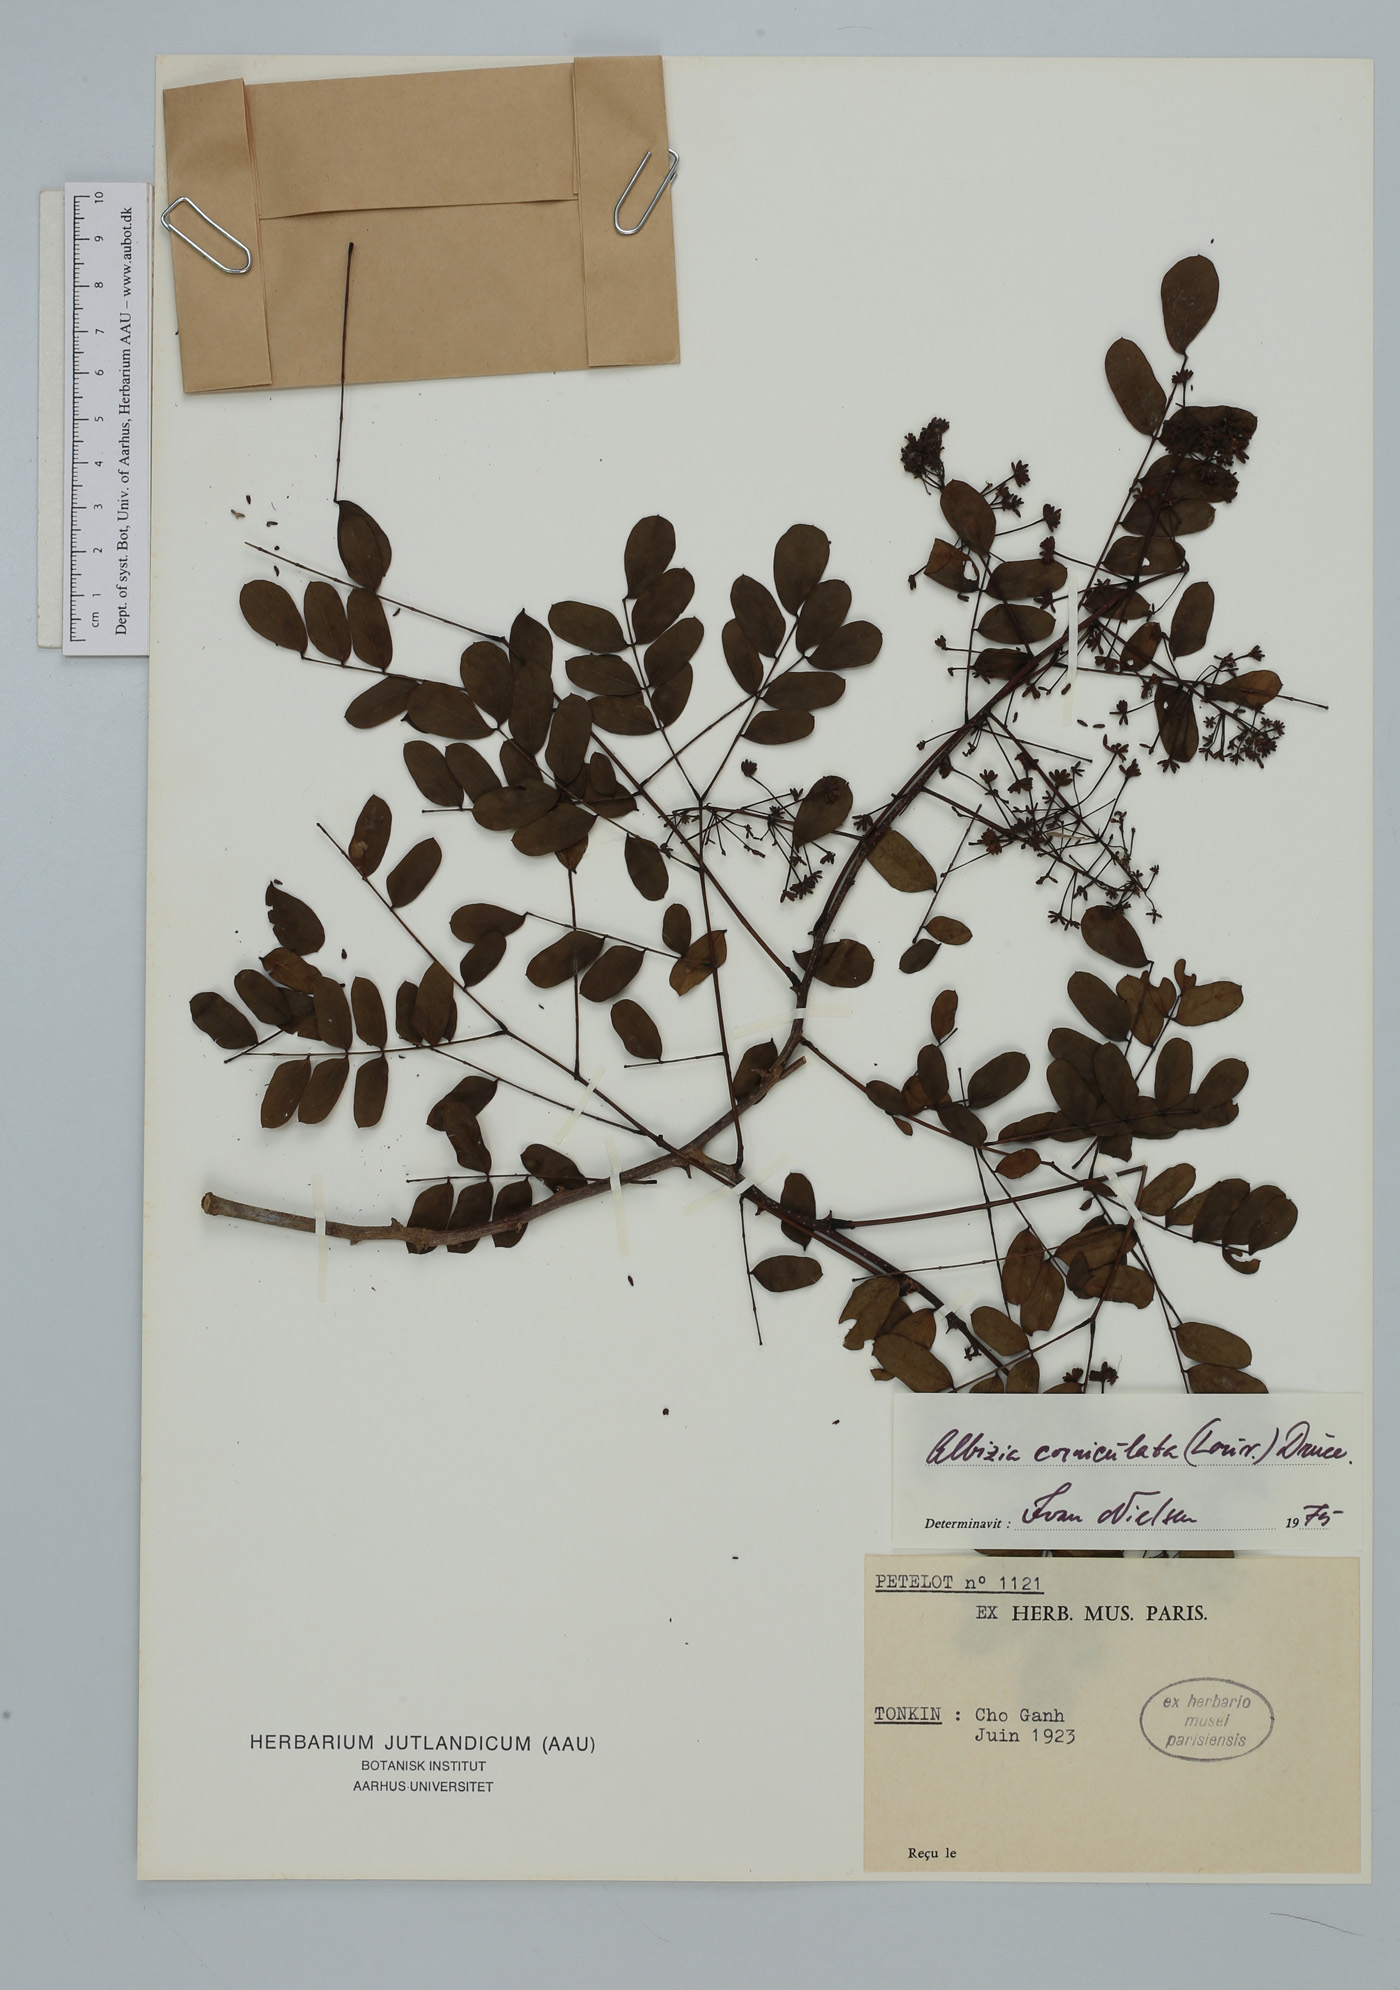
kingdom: Plantae
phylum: Tracheophyta
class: Magnoliopsida
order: Fabales
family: Fabaceae
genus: Albizia
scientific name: Albizia corniculata
